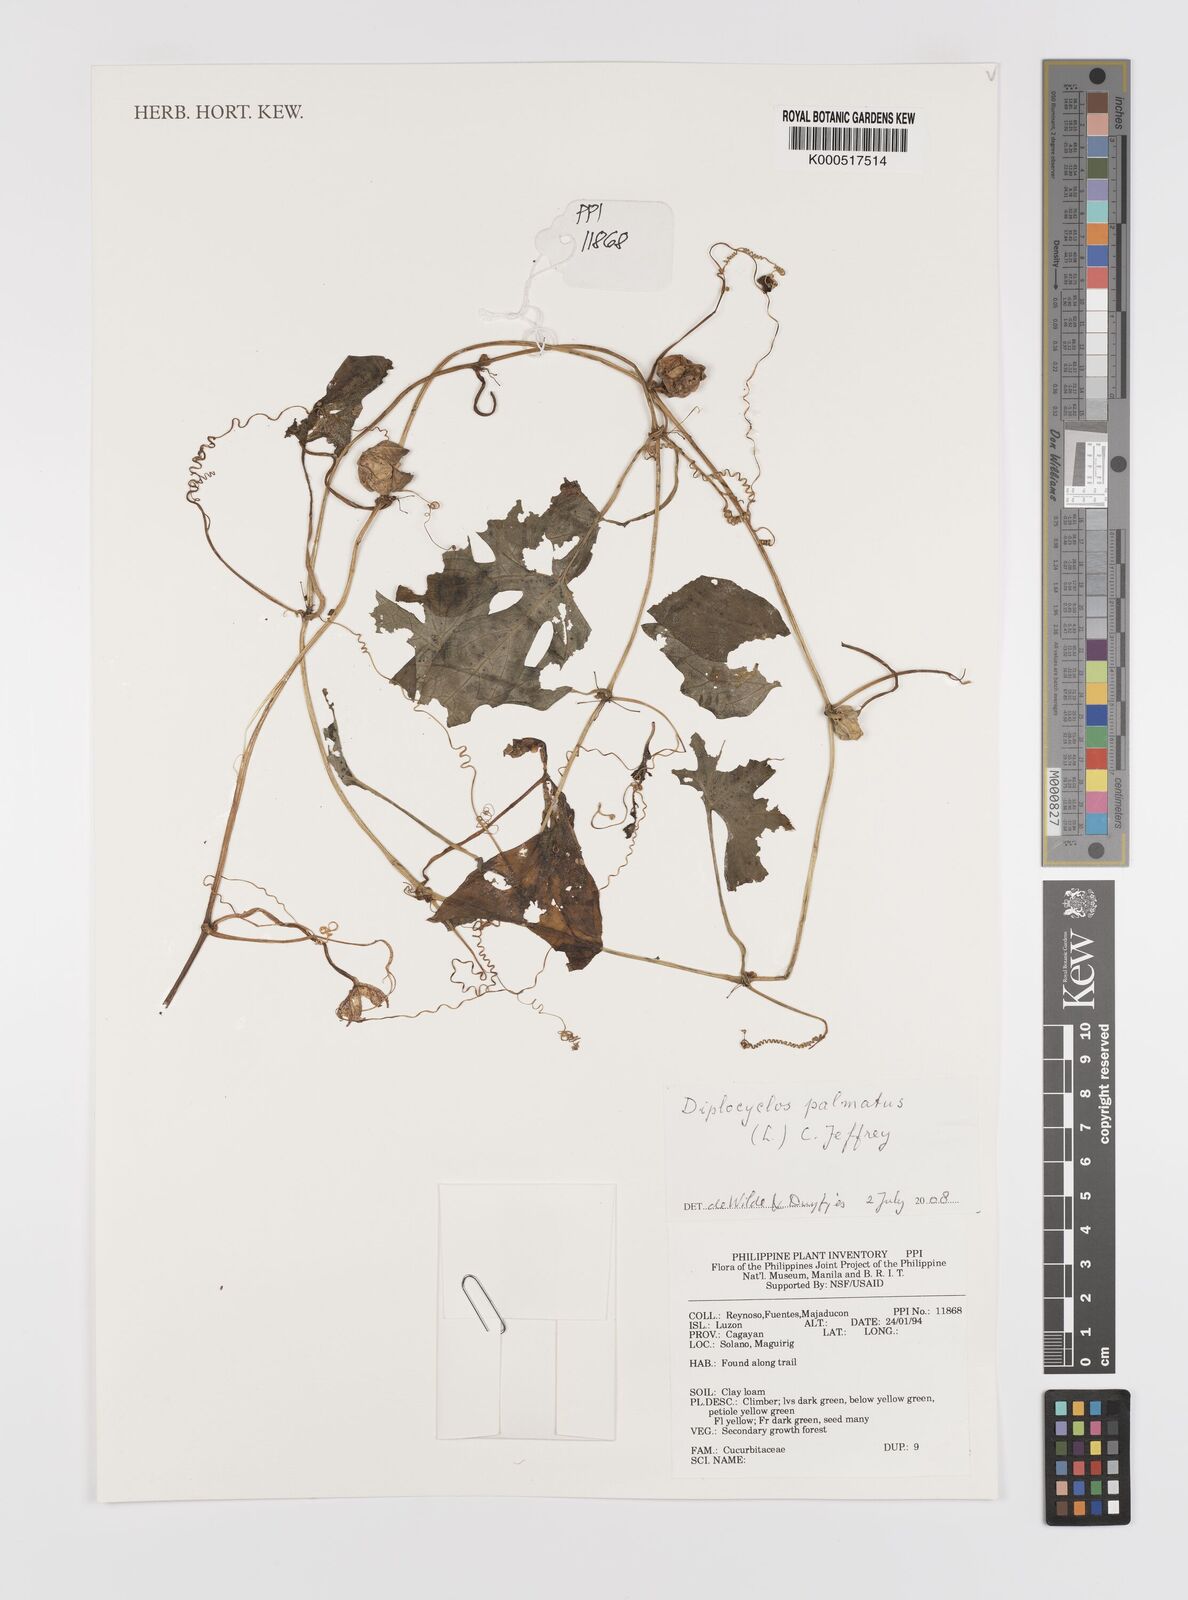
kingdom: Plantae
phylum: Tracheophyta
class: Magnoliopsida
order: Cucurbitales
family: Cucurbitaceae
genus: Diplocyclos
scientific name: Diplocyclos palmatus
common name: Striped-cucumber
